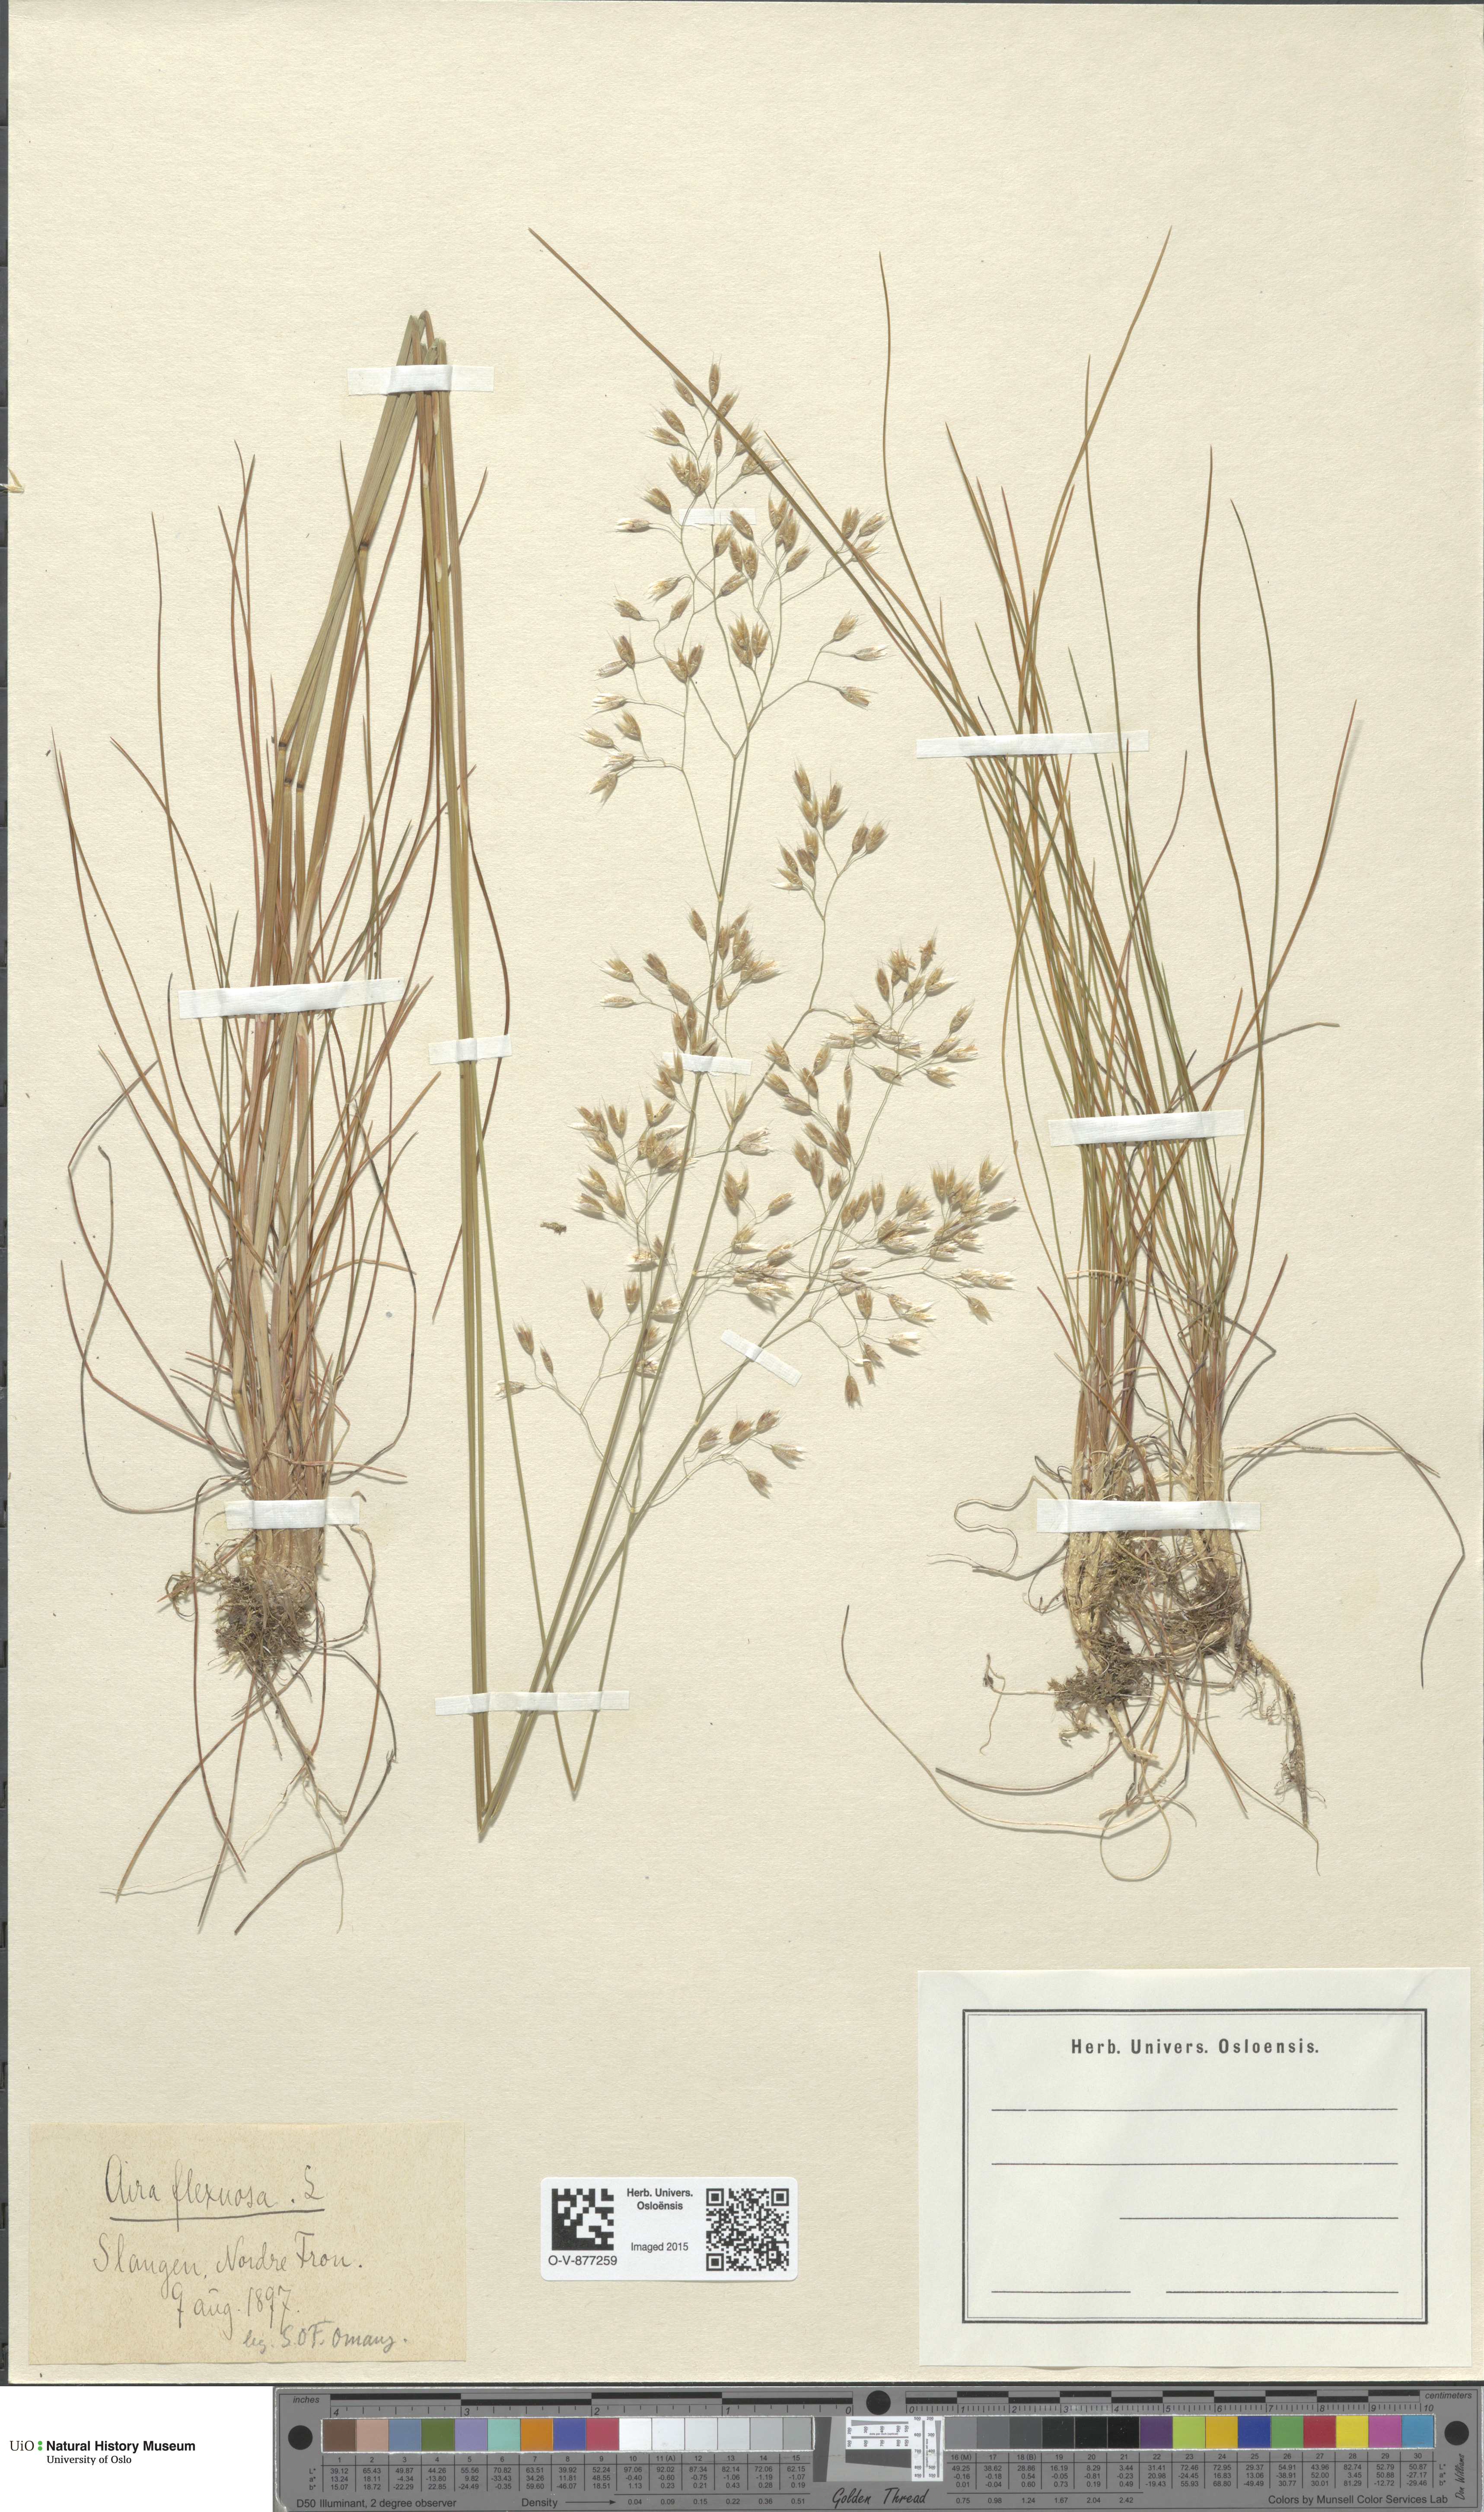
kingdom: Plantae
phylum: Tracheophyta
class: Liliopsida
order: Poales
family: Poaceae
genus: Avenella
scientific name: Avenella flexuosa
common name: Wavy hairgrass
